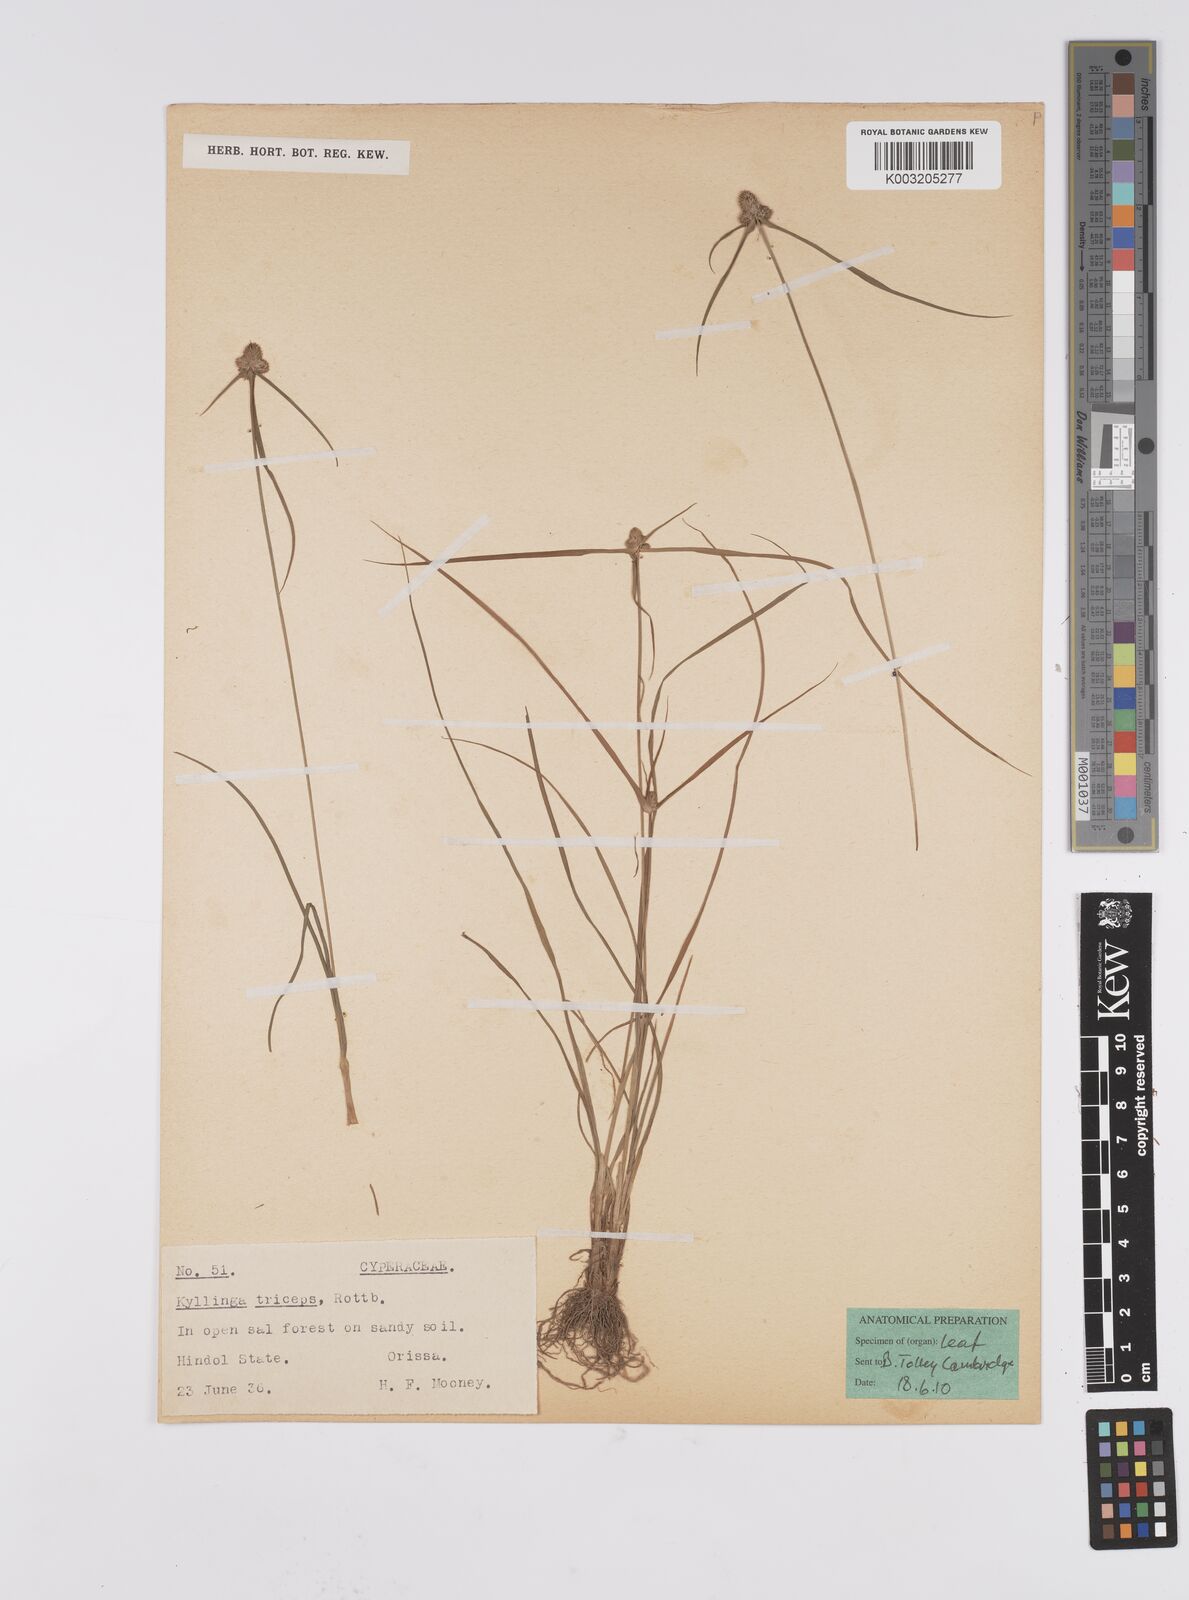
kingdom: Plantae
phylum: Tracheophyta
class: Liliopsida
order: Poales
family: Cyperaceae
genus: Cyperus
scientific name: Cyperus
